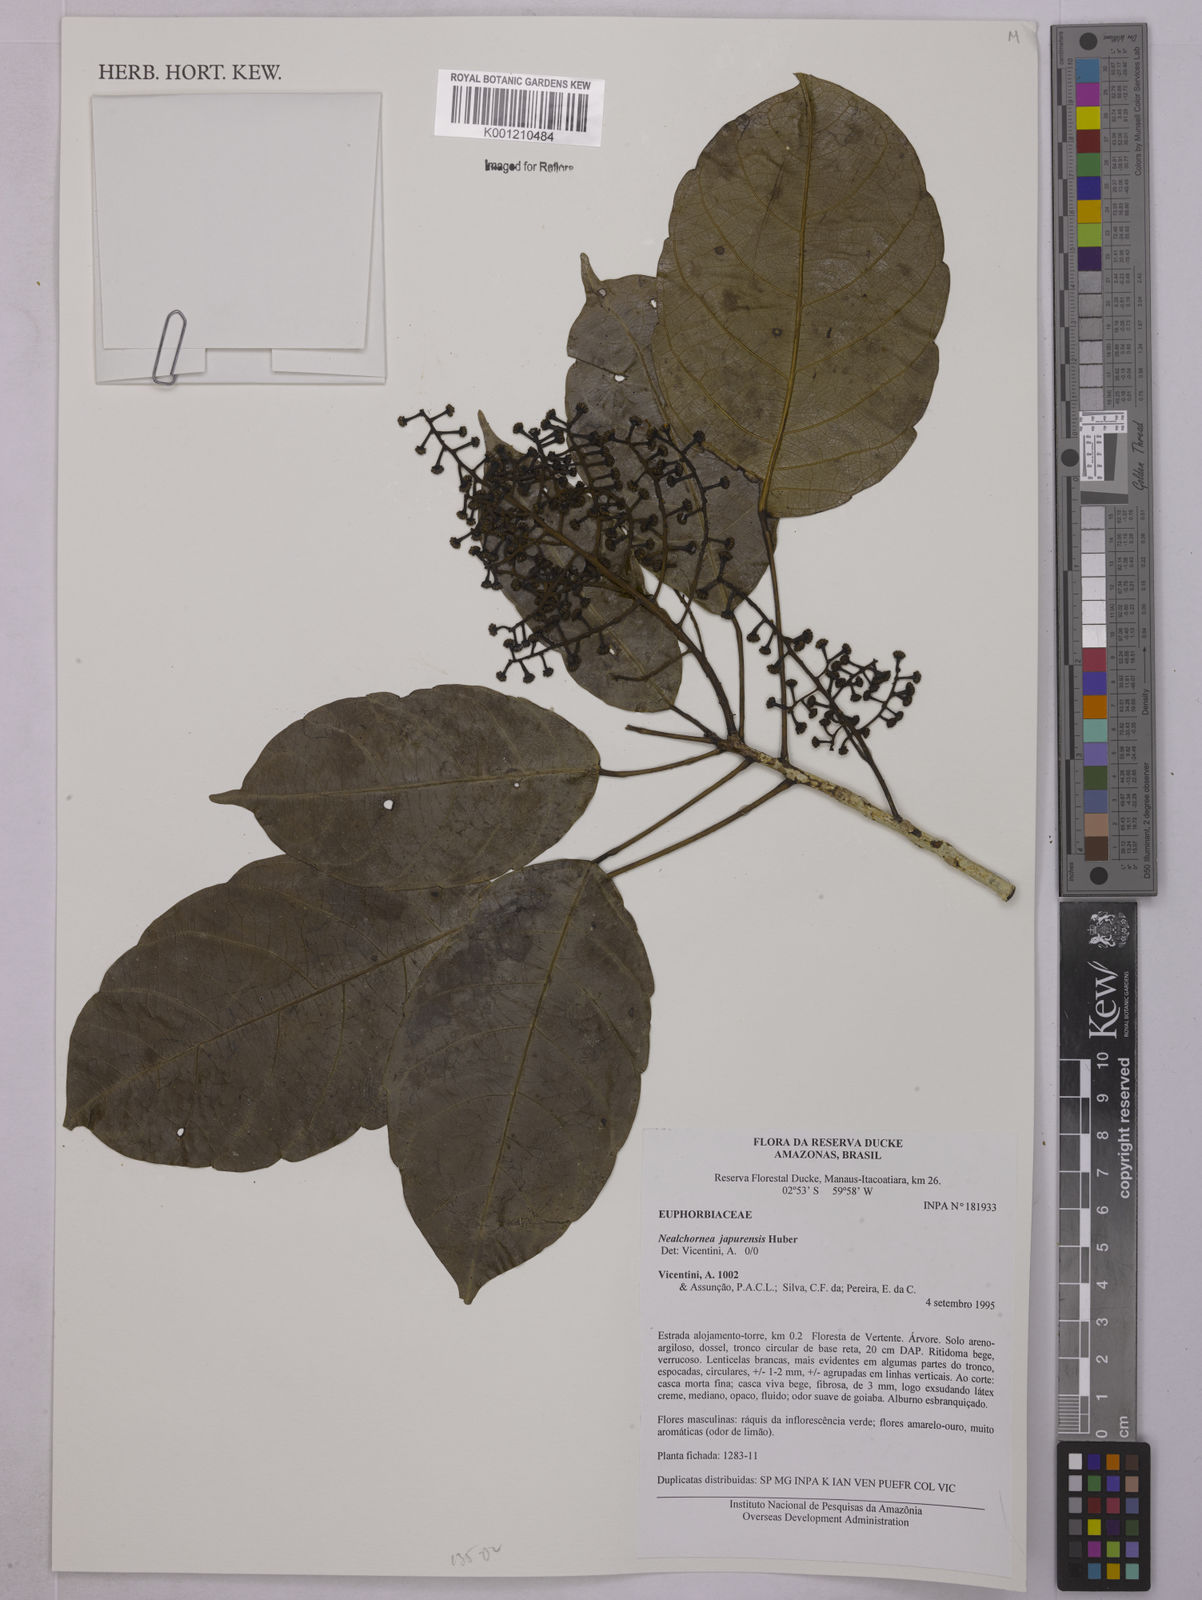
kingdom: Plantae
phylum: Tracheophyta
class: Magnoliopsida
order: Malpighiales
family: Euphorbiaceae
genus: Nealchornea
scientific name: Nealchornea yapurensis
